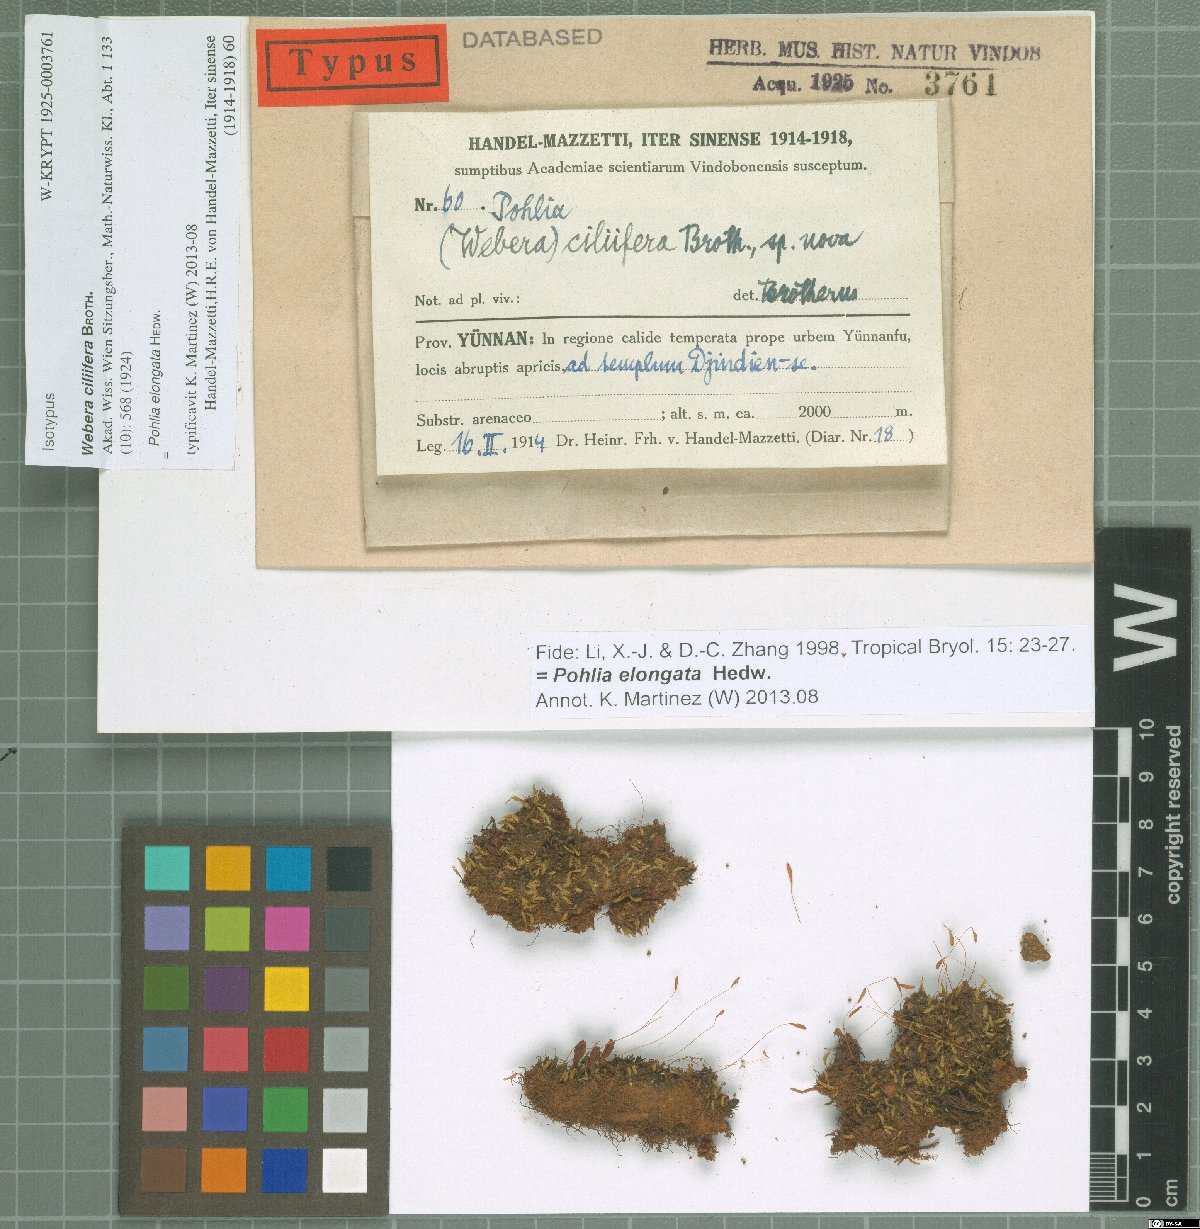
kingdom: Plantae
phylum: Bryophyta
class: Bryopsida
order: Bryales
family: Mniaceae
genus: Pohlia
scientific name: Pohlia elongata
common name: Long-fruited thread-moss
